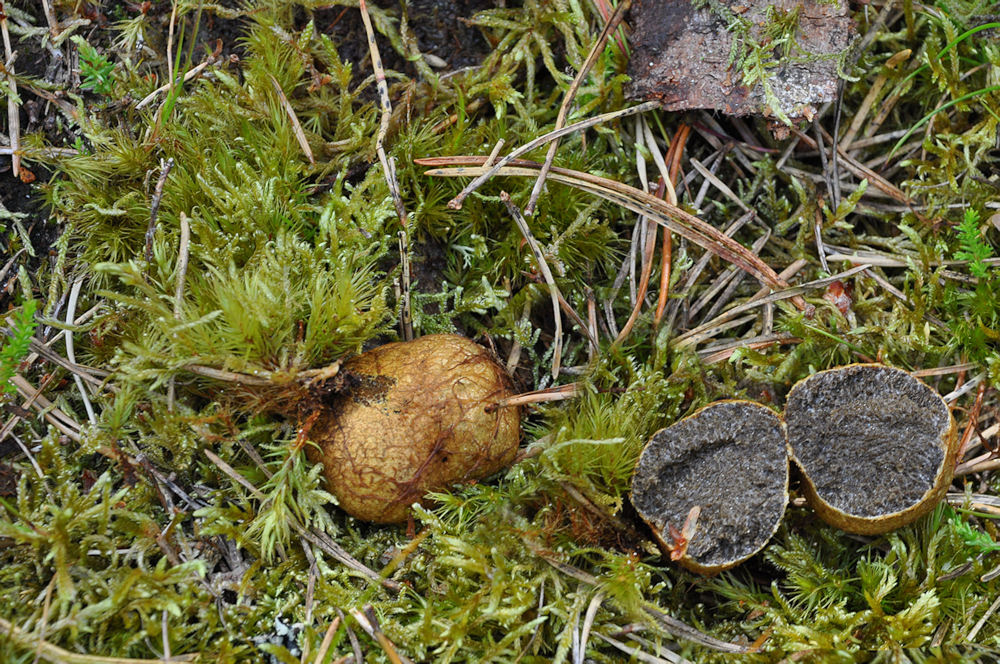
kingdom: Fungi
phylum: Basidiomycota
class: Agaricomycetes
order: Boletales
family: Rhizopogonaceae
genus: Rhizopogon
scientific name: Rhizopogon obtextus
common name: gul skægtrøffel
